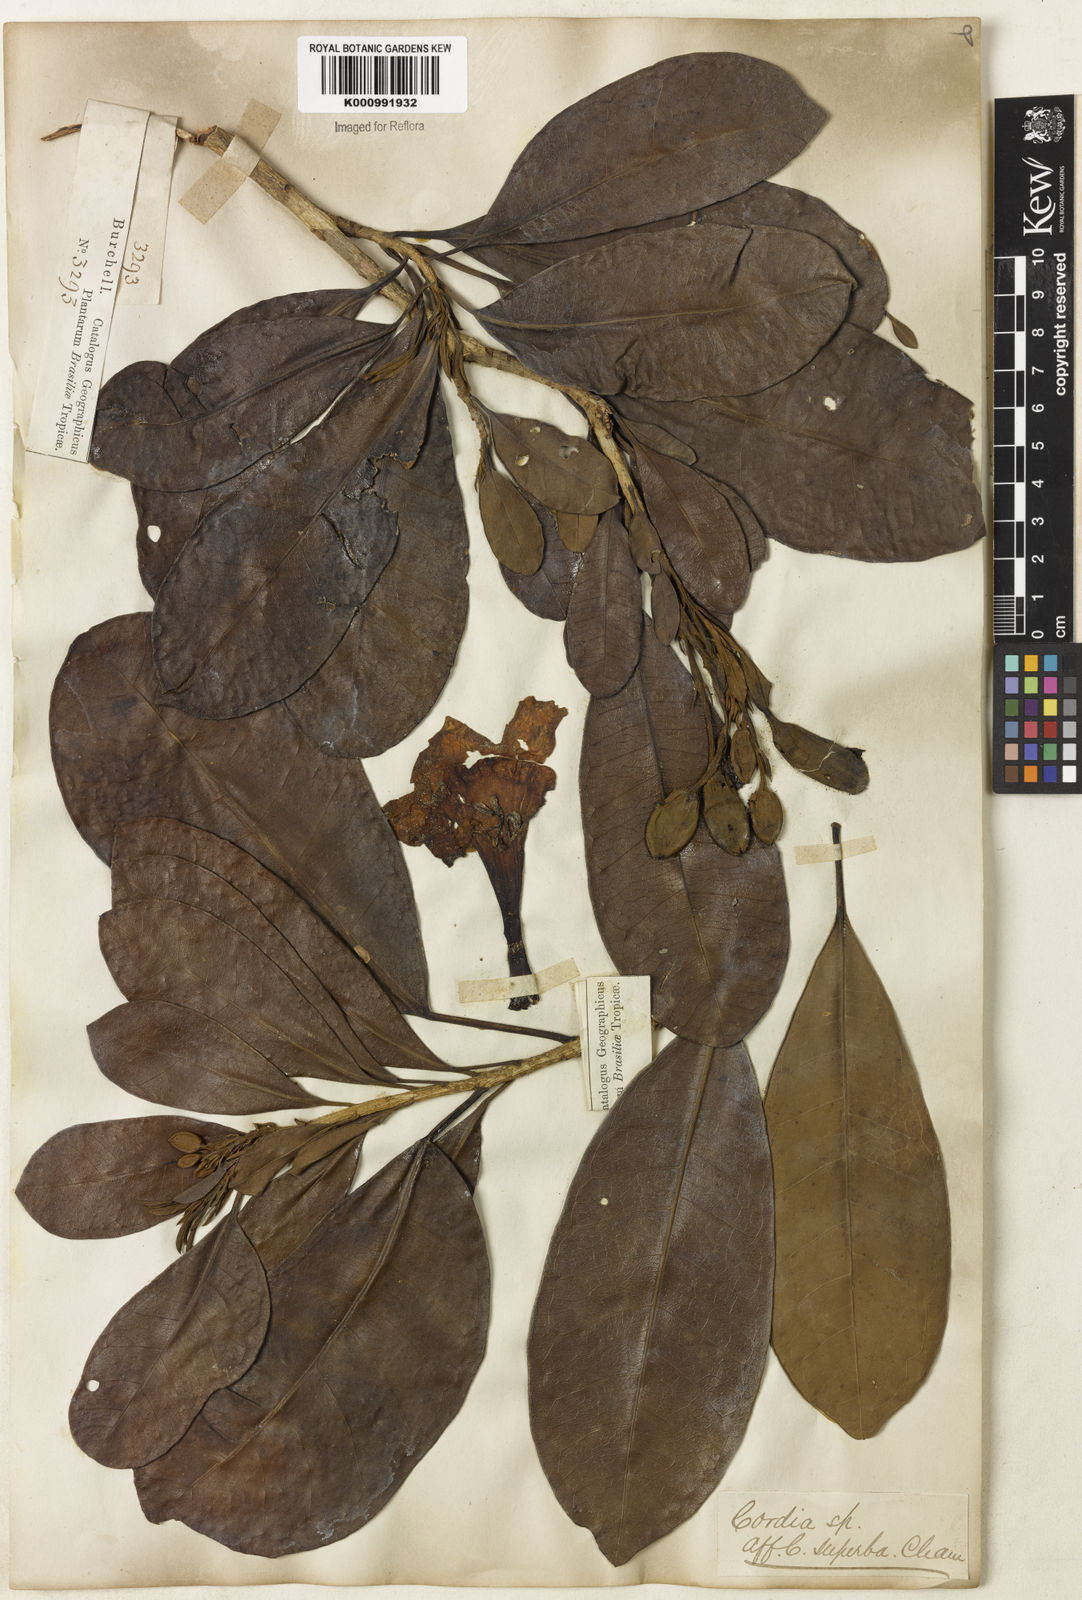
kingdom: Plantae
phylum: Tracheophyta
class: Magnoliopsida
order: Lamiales
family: Bignoniaceae
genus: Tabebuia
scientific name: Tabebuia obtusifolia
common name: Guadeloupe trumpet-tree
